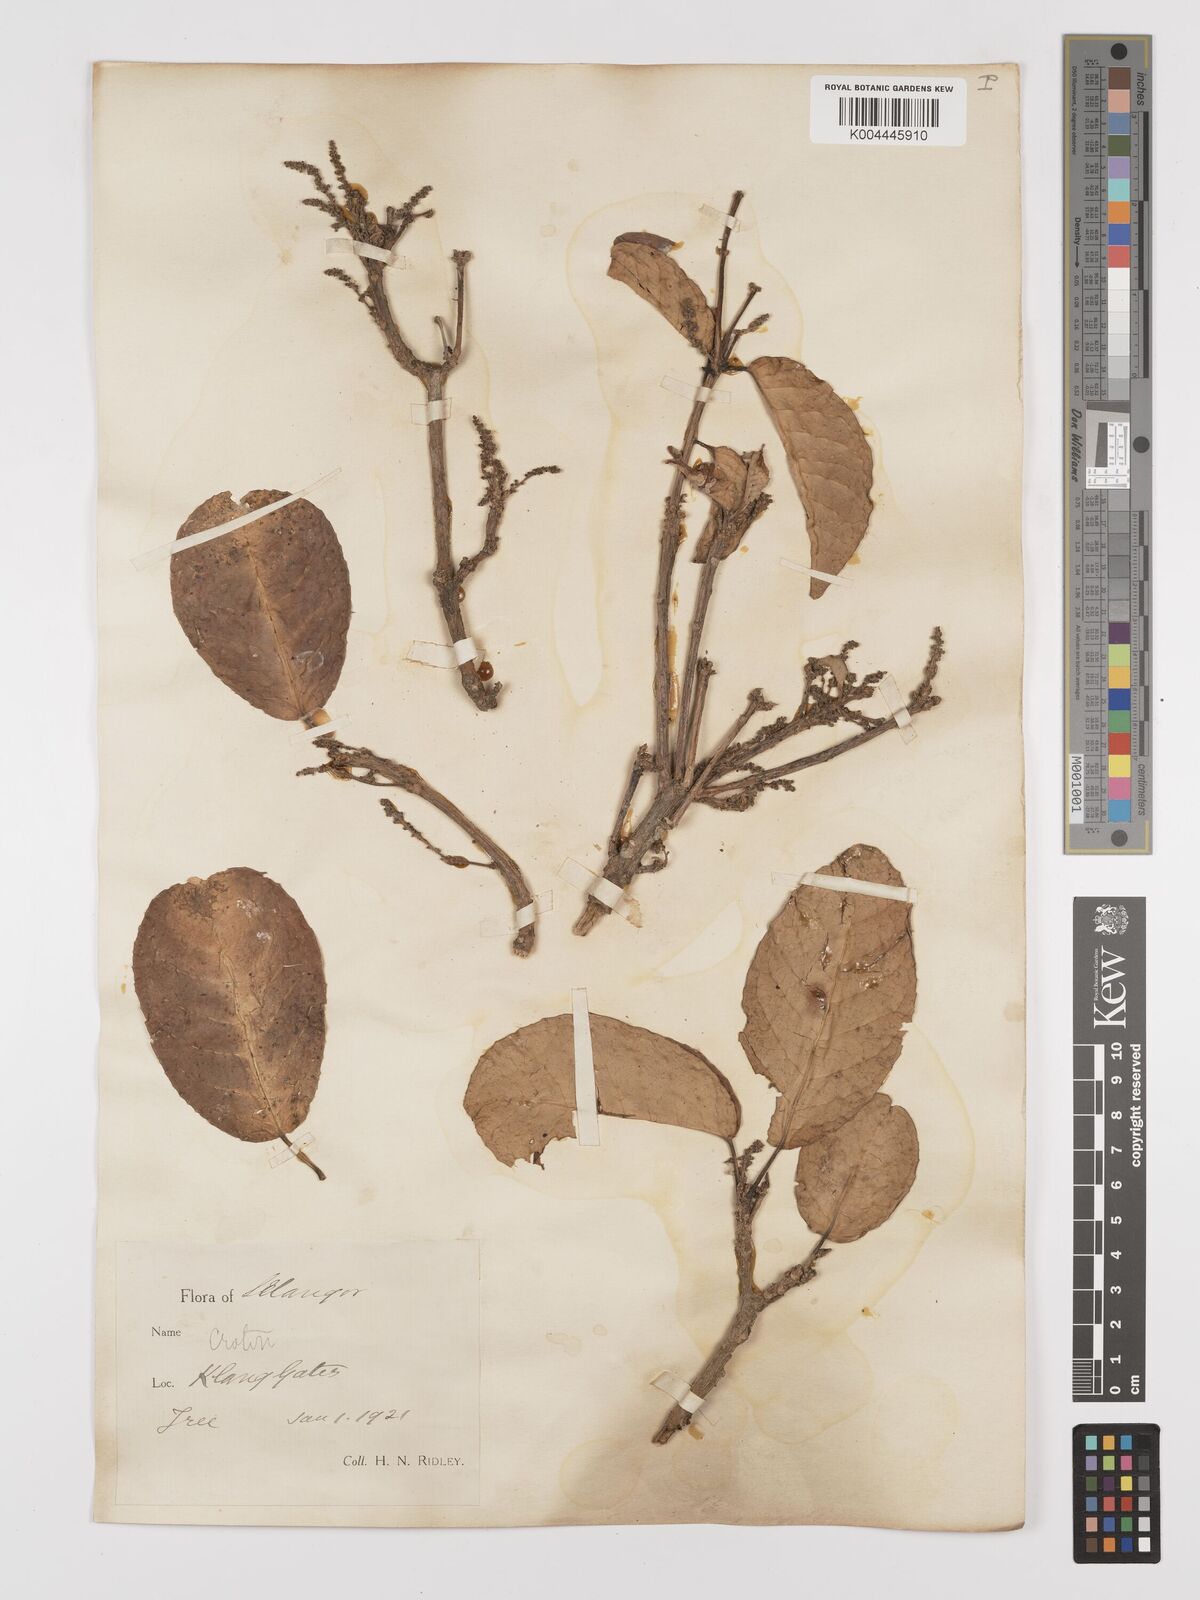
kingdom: Plantae
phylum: Tracheophyta
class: Magnoliopsida
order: Malpighiales
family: Euphorbiaceae
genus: Croton
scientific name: Croton griffithii
